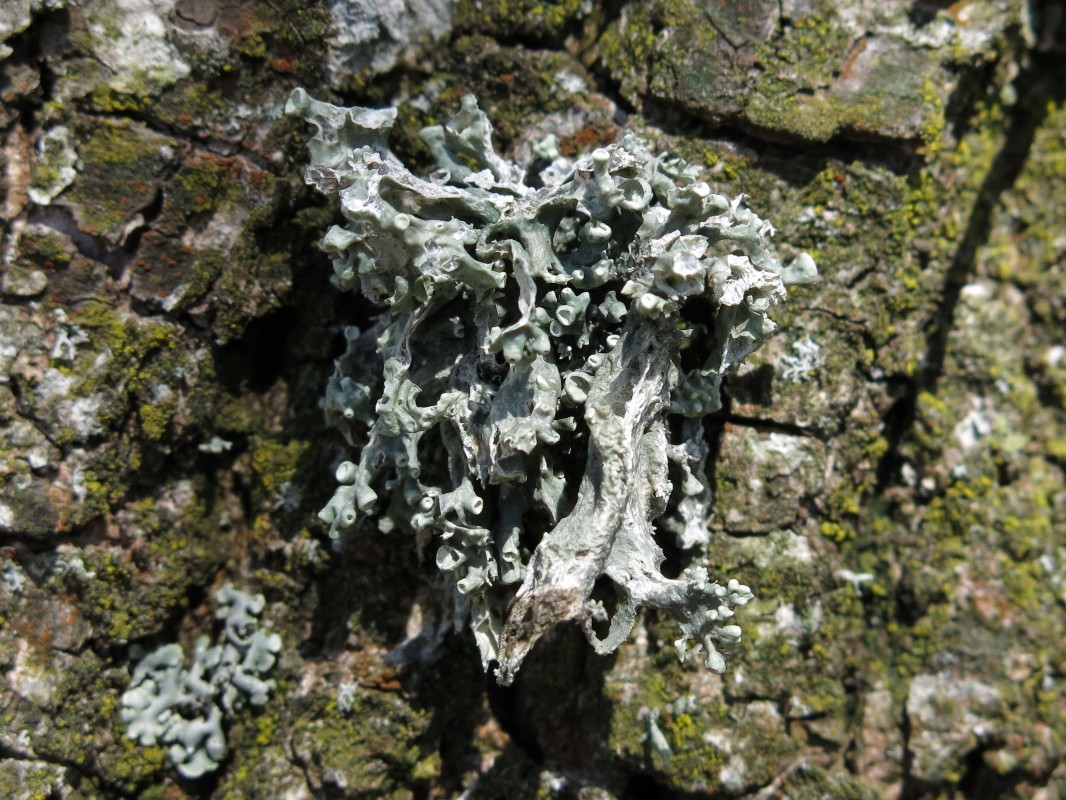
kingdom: Fungi
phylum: Ascomycota
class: Lecanoromycetes
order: Lecanorales
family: Ramalinaceae
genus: Ramalina
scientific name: Ramalina fastigiata
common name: tue-grenlav
